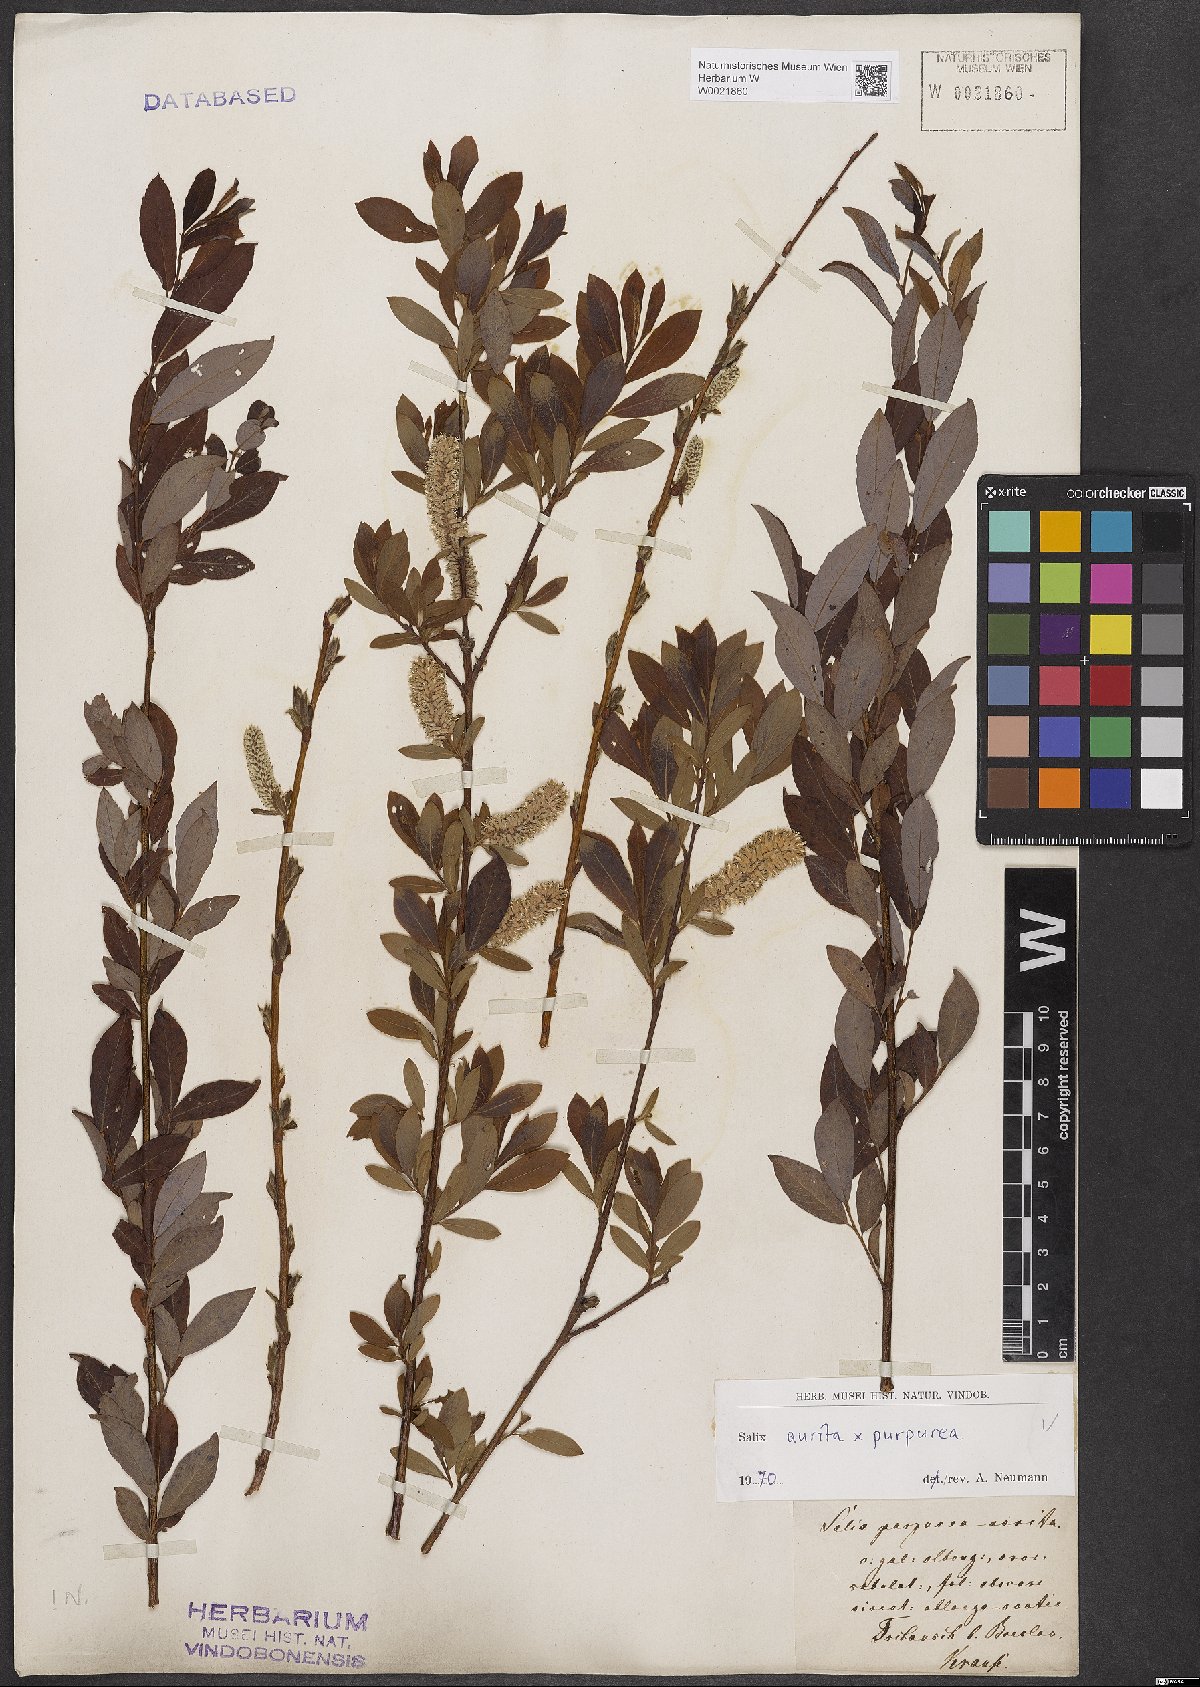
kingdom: Plantae
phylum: Tracheophyta
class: Magnoliopsida
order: Malpighiales
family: Salicaceae
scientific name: Salicaceae
